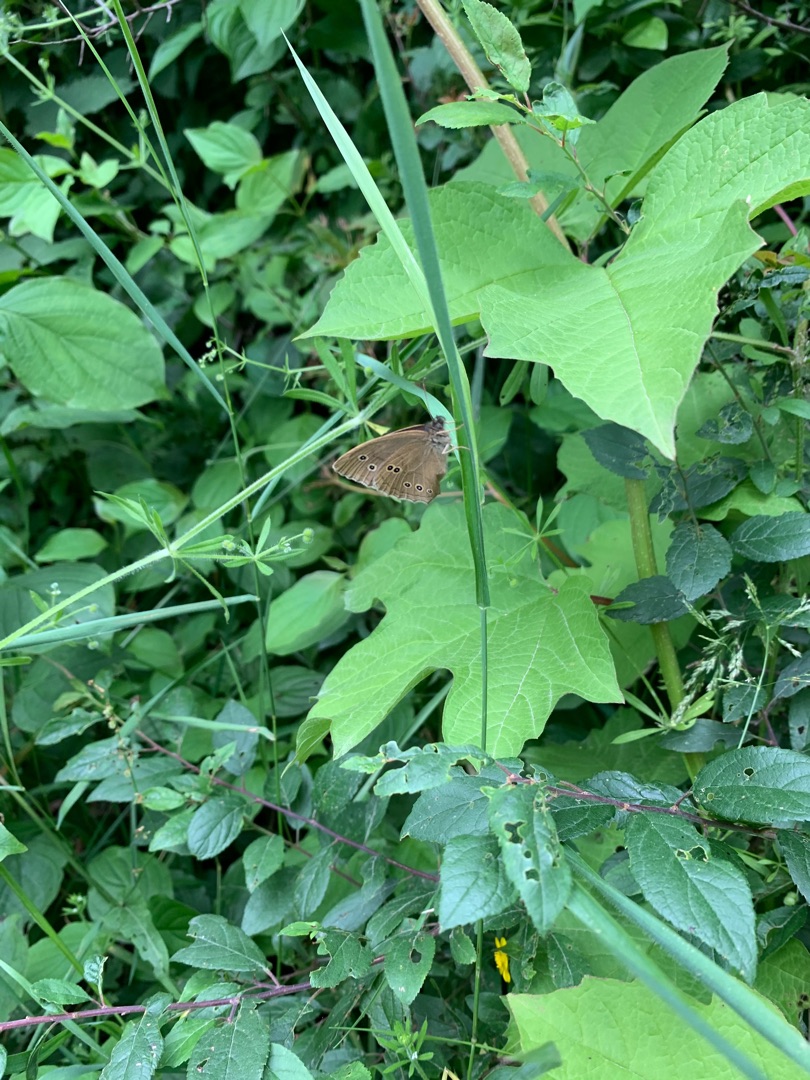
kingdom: Animalia
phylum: Arthropoda
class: Insecta
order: Lepidoptera
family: Nymphalidae
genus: Aphantopus
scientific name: Aphantopus hyperantus
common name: Engrandøje
